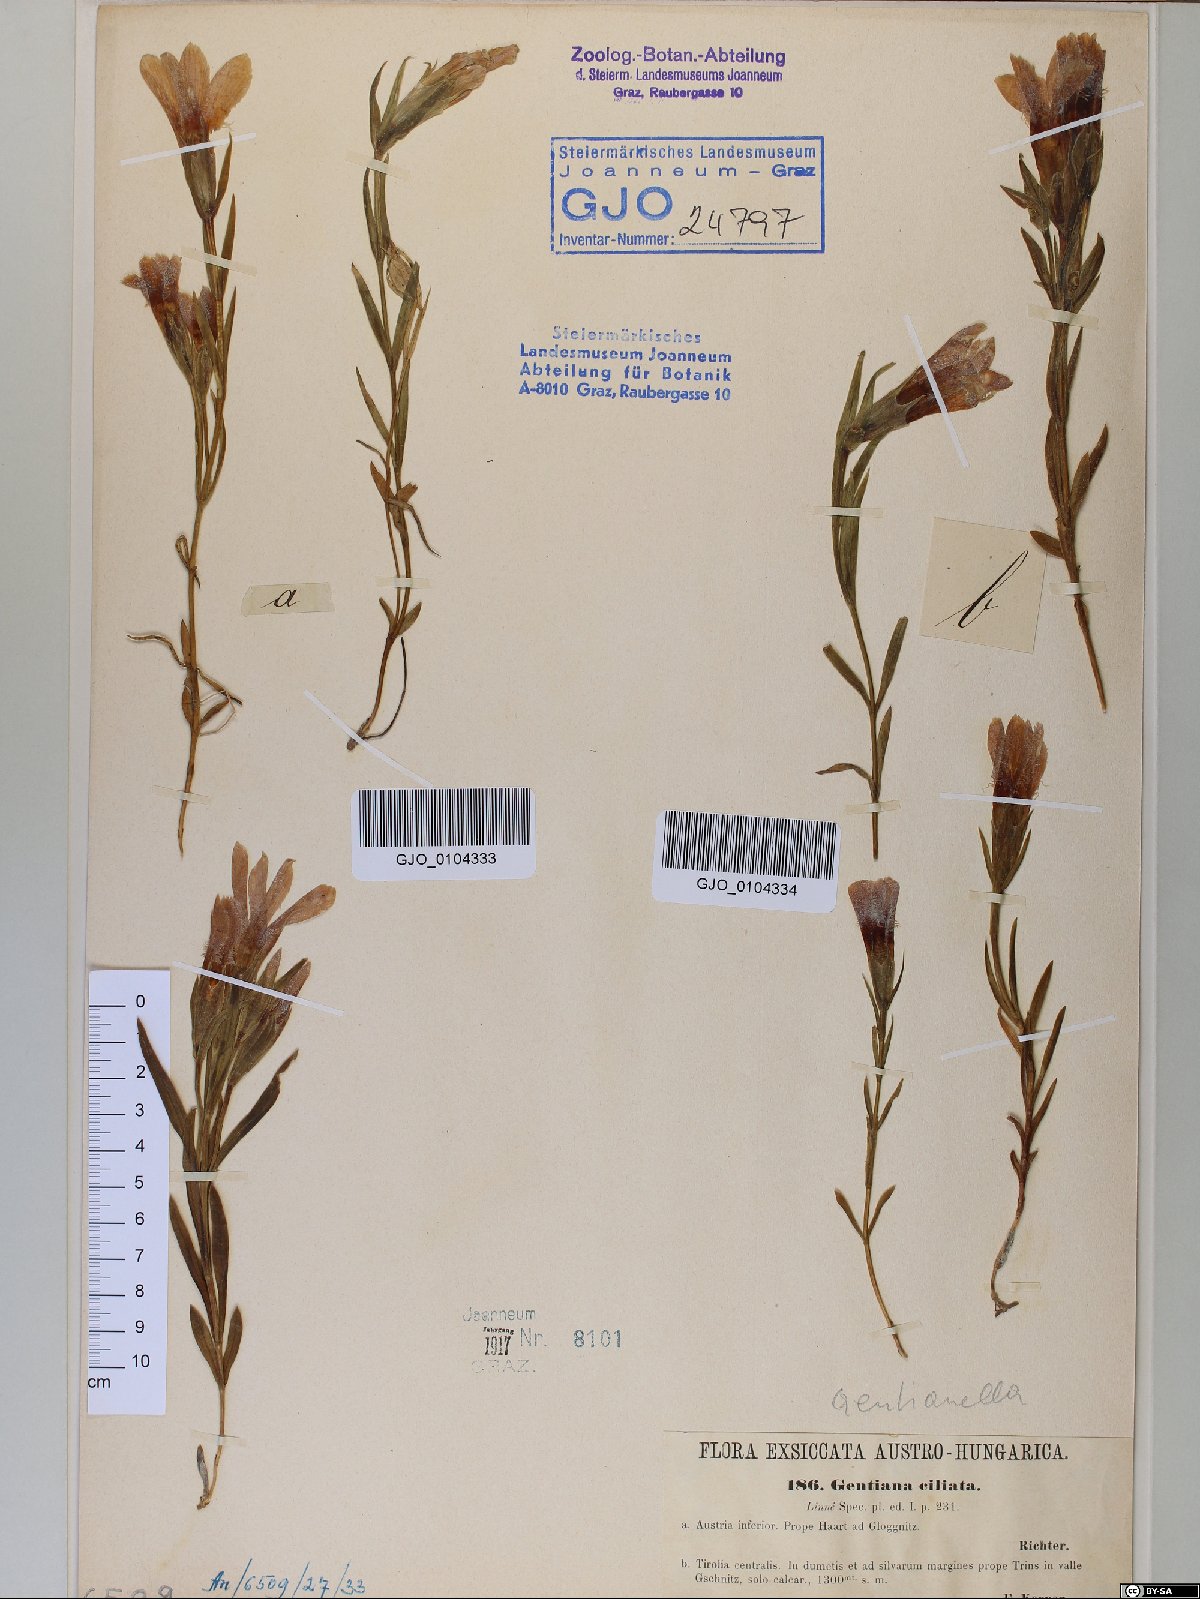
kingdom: Plantae
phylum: Tracheophyta
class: Magnoliopsida
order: Gentianales
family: Gentianaceae
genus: Gentianopsis
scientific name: Gentianopsis ciliata
